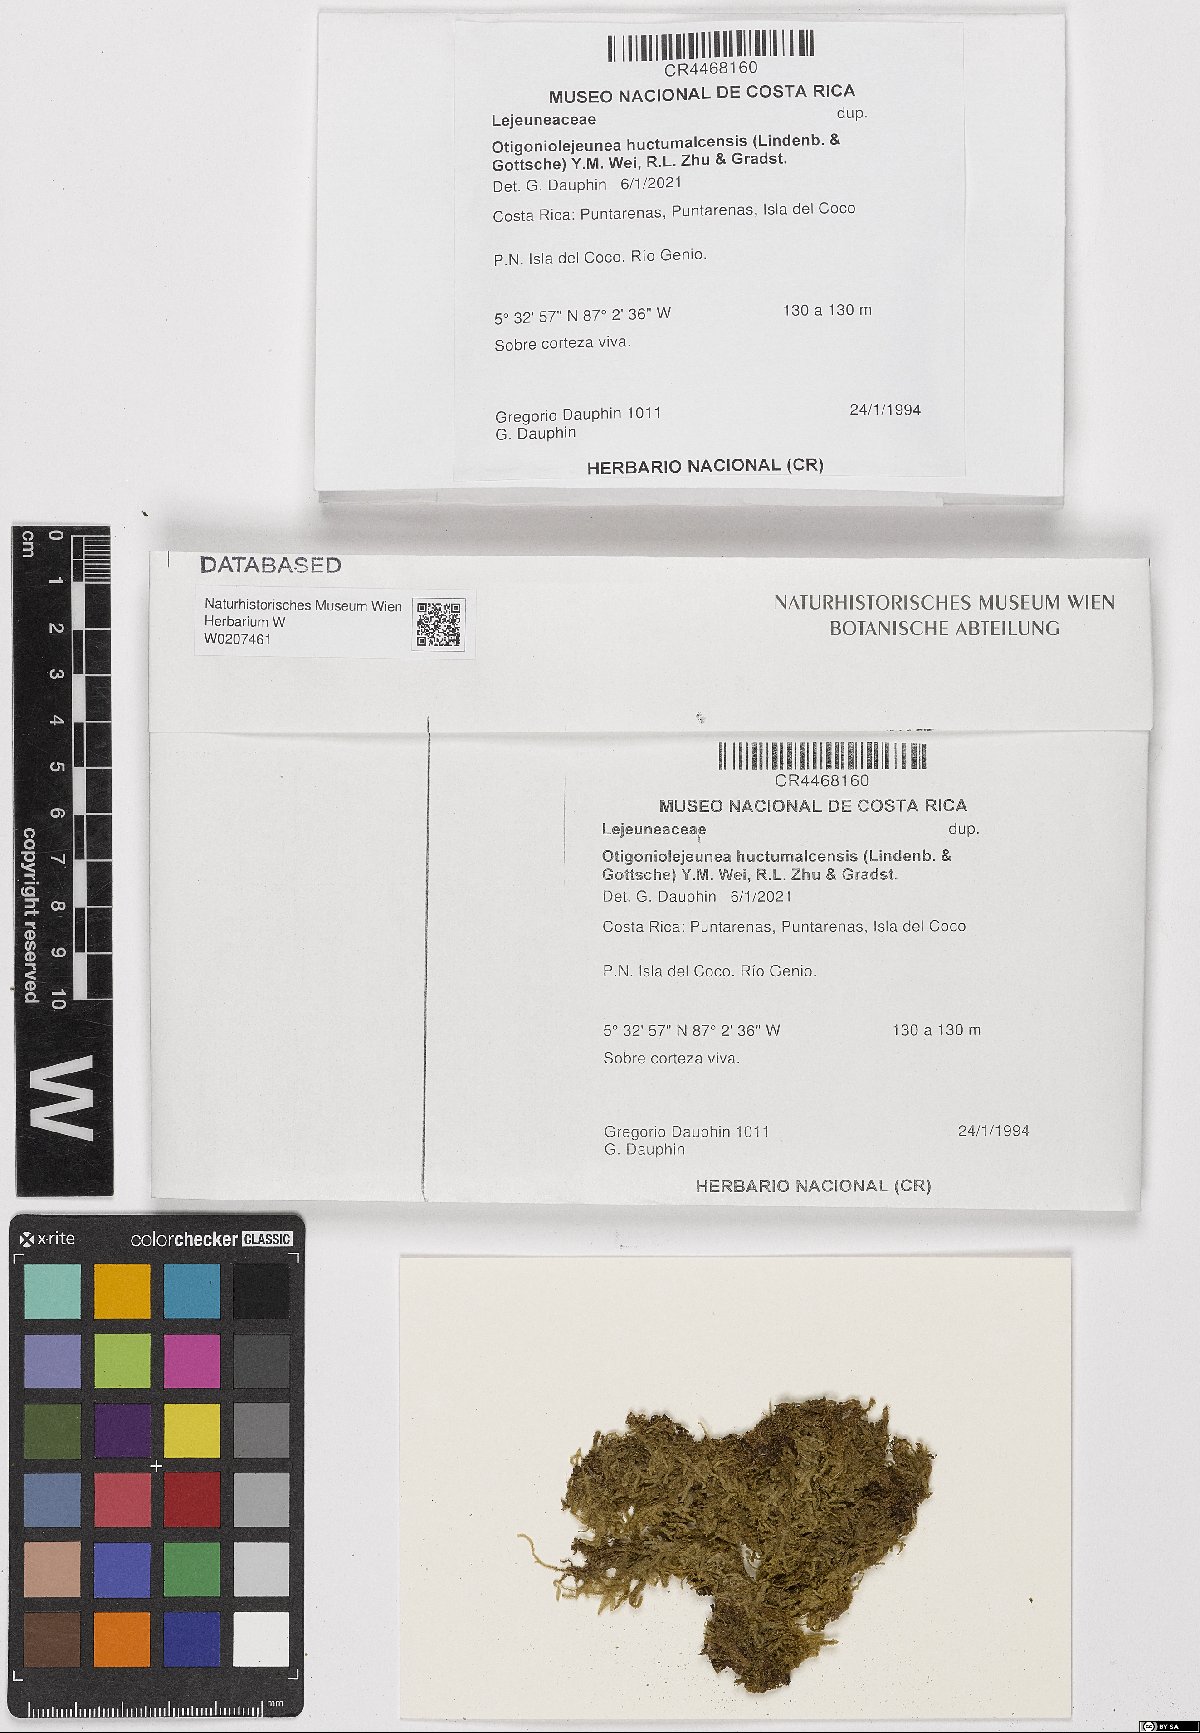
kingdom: Plantae
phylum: Marchantiophyta
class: Jungermanniopsida
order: Porellales
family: Lejeuneaceae
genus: Otigoniolejeunea
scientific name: Otigoniolejeunea huctumalcensis
